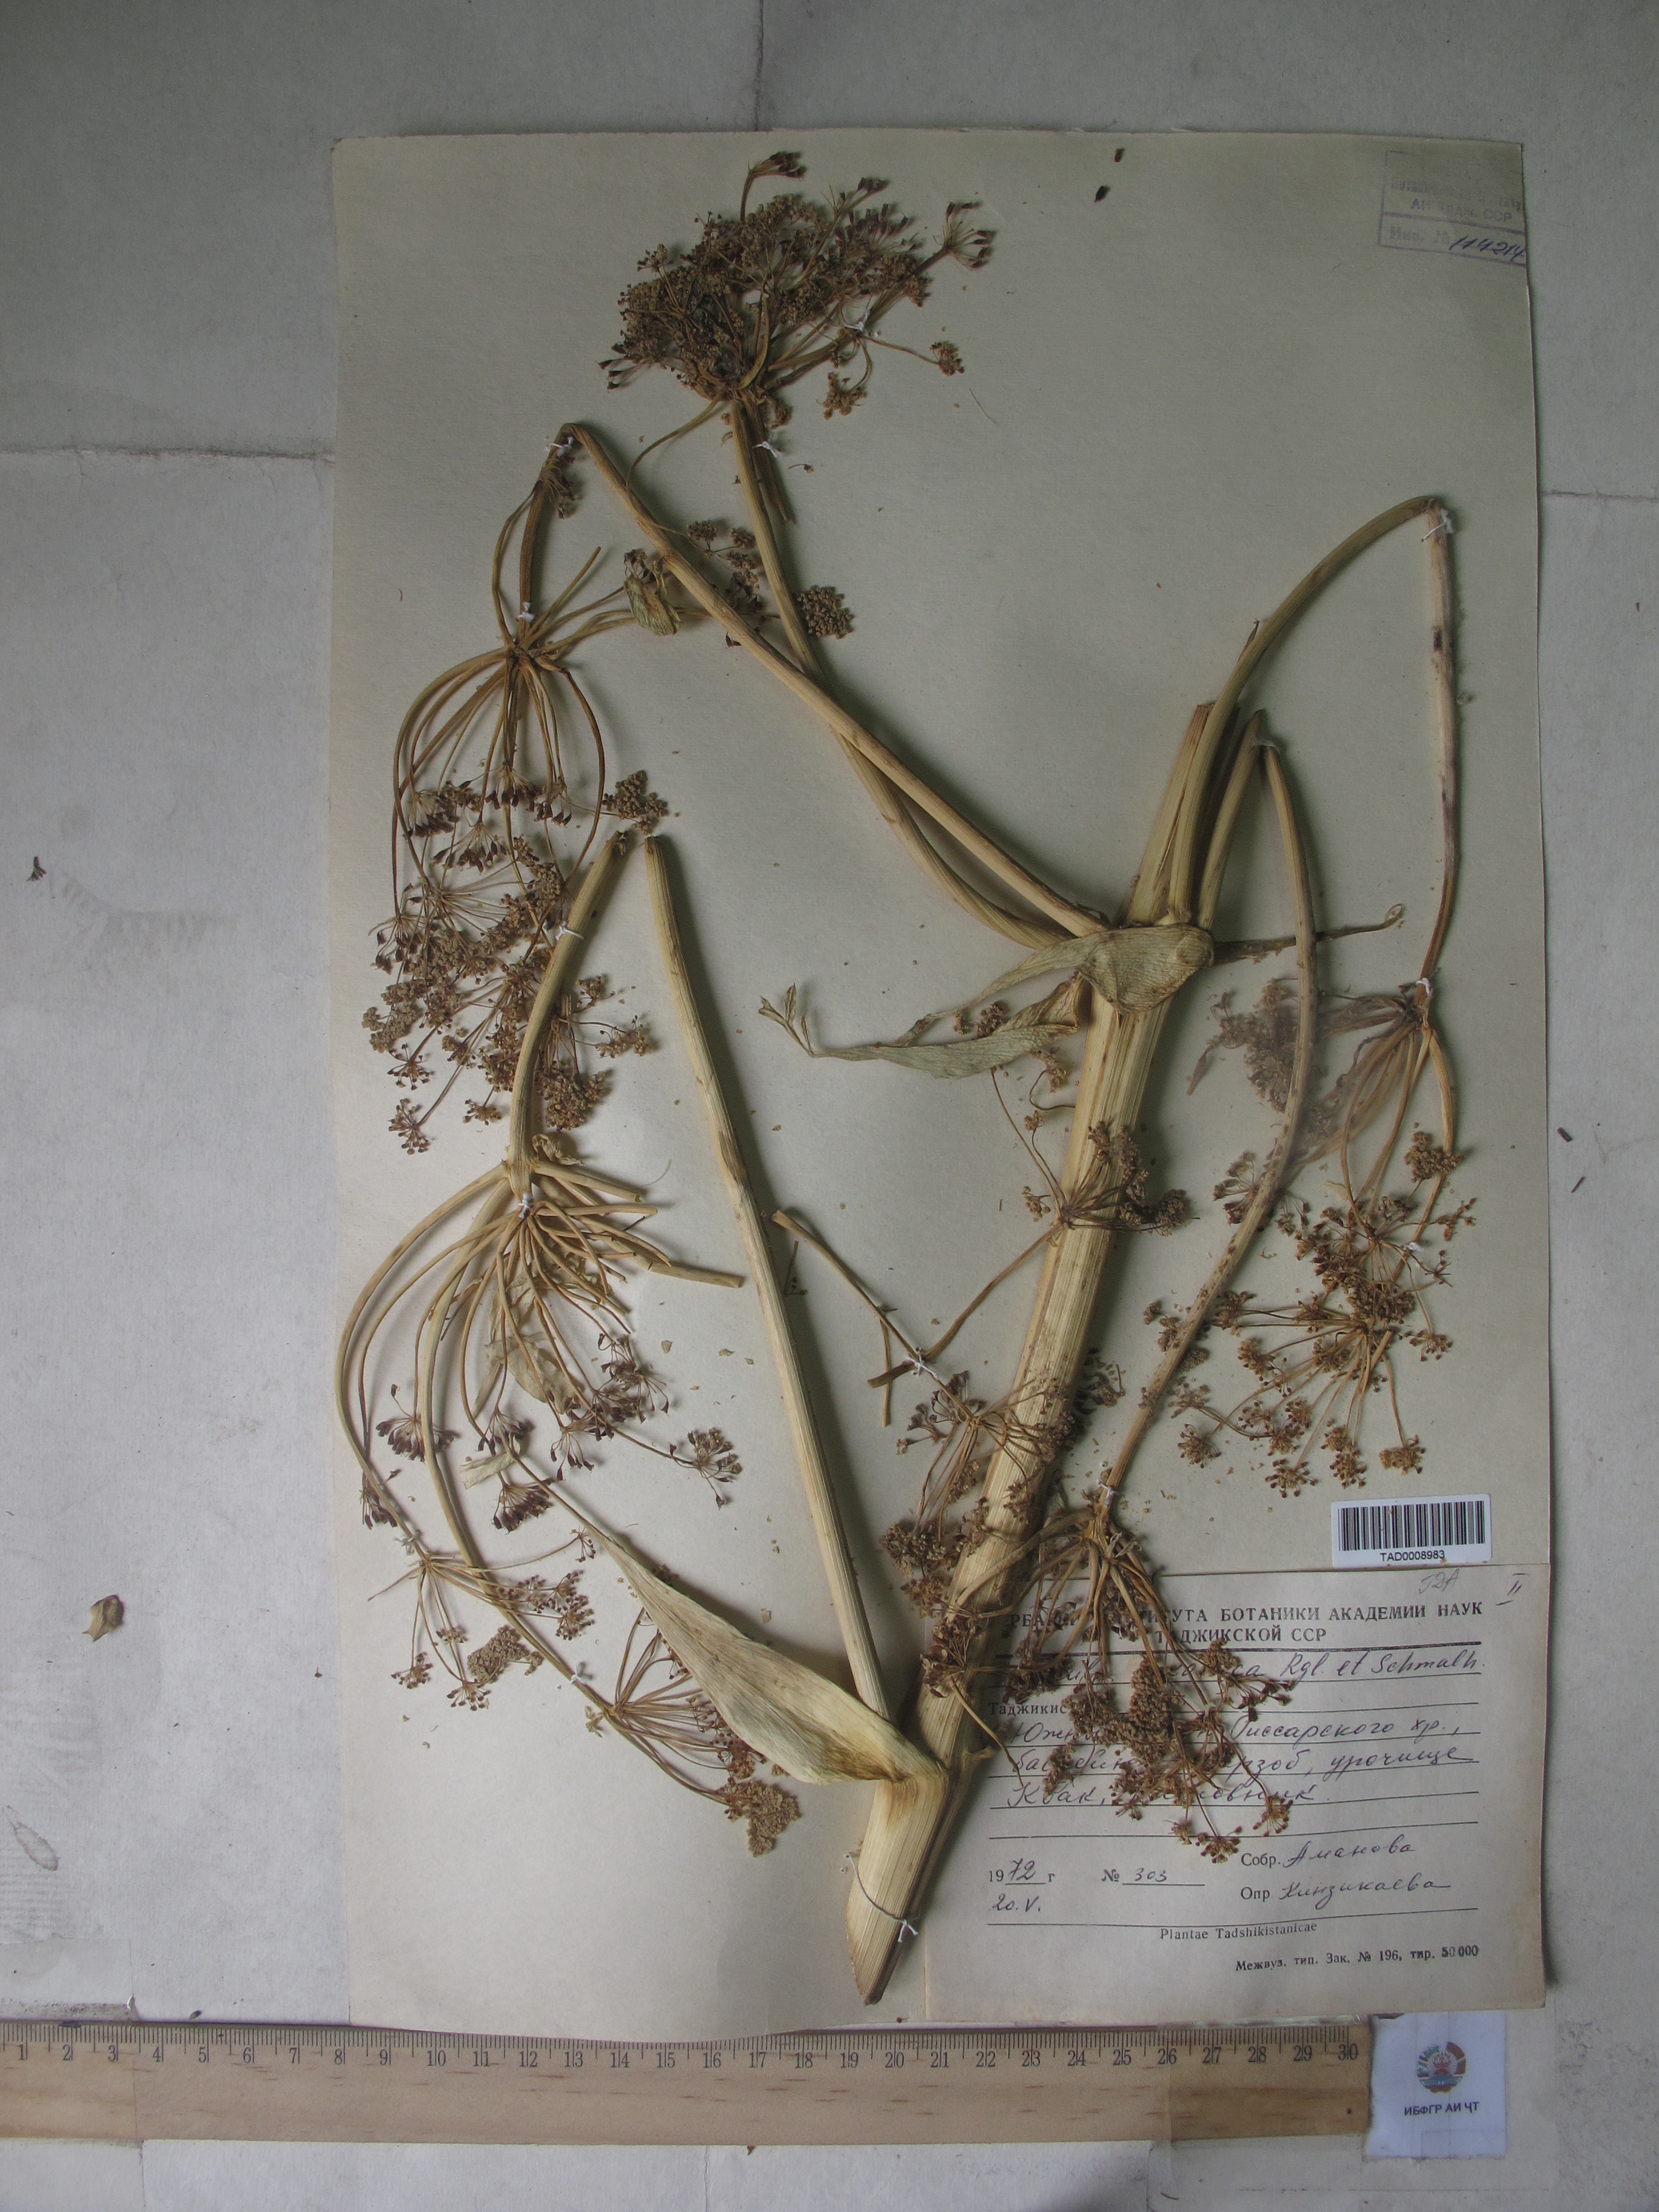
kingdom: Plantae
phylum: Tracheophyta
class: Magnoliopsida
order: Apiales
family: Apiaceae
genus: Ferula
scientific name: Ferula kokanica
